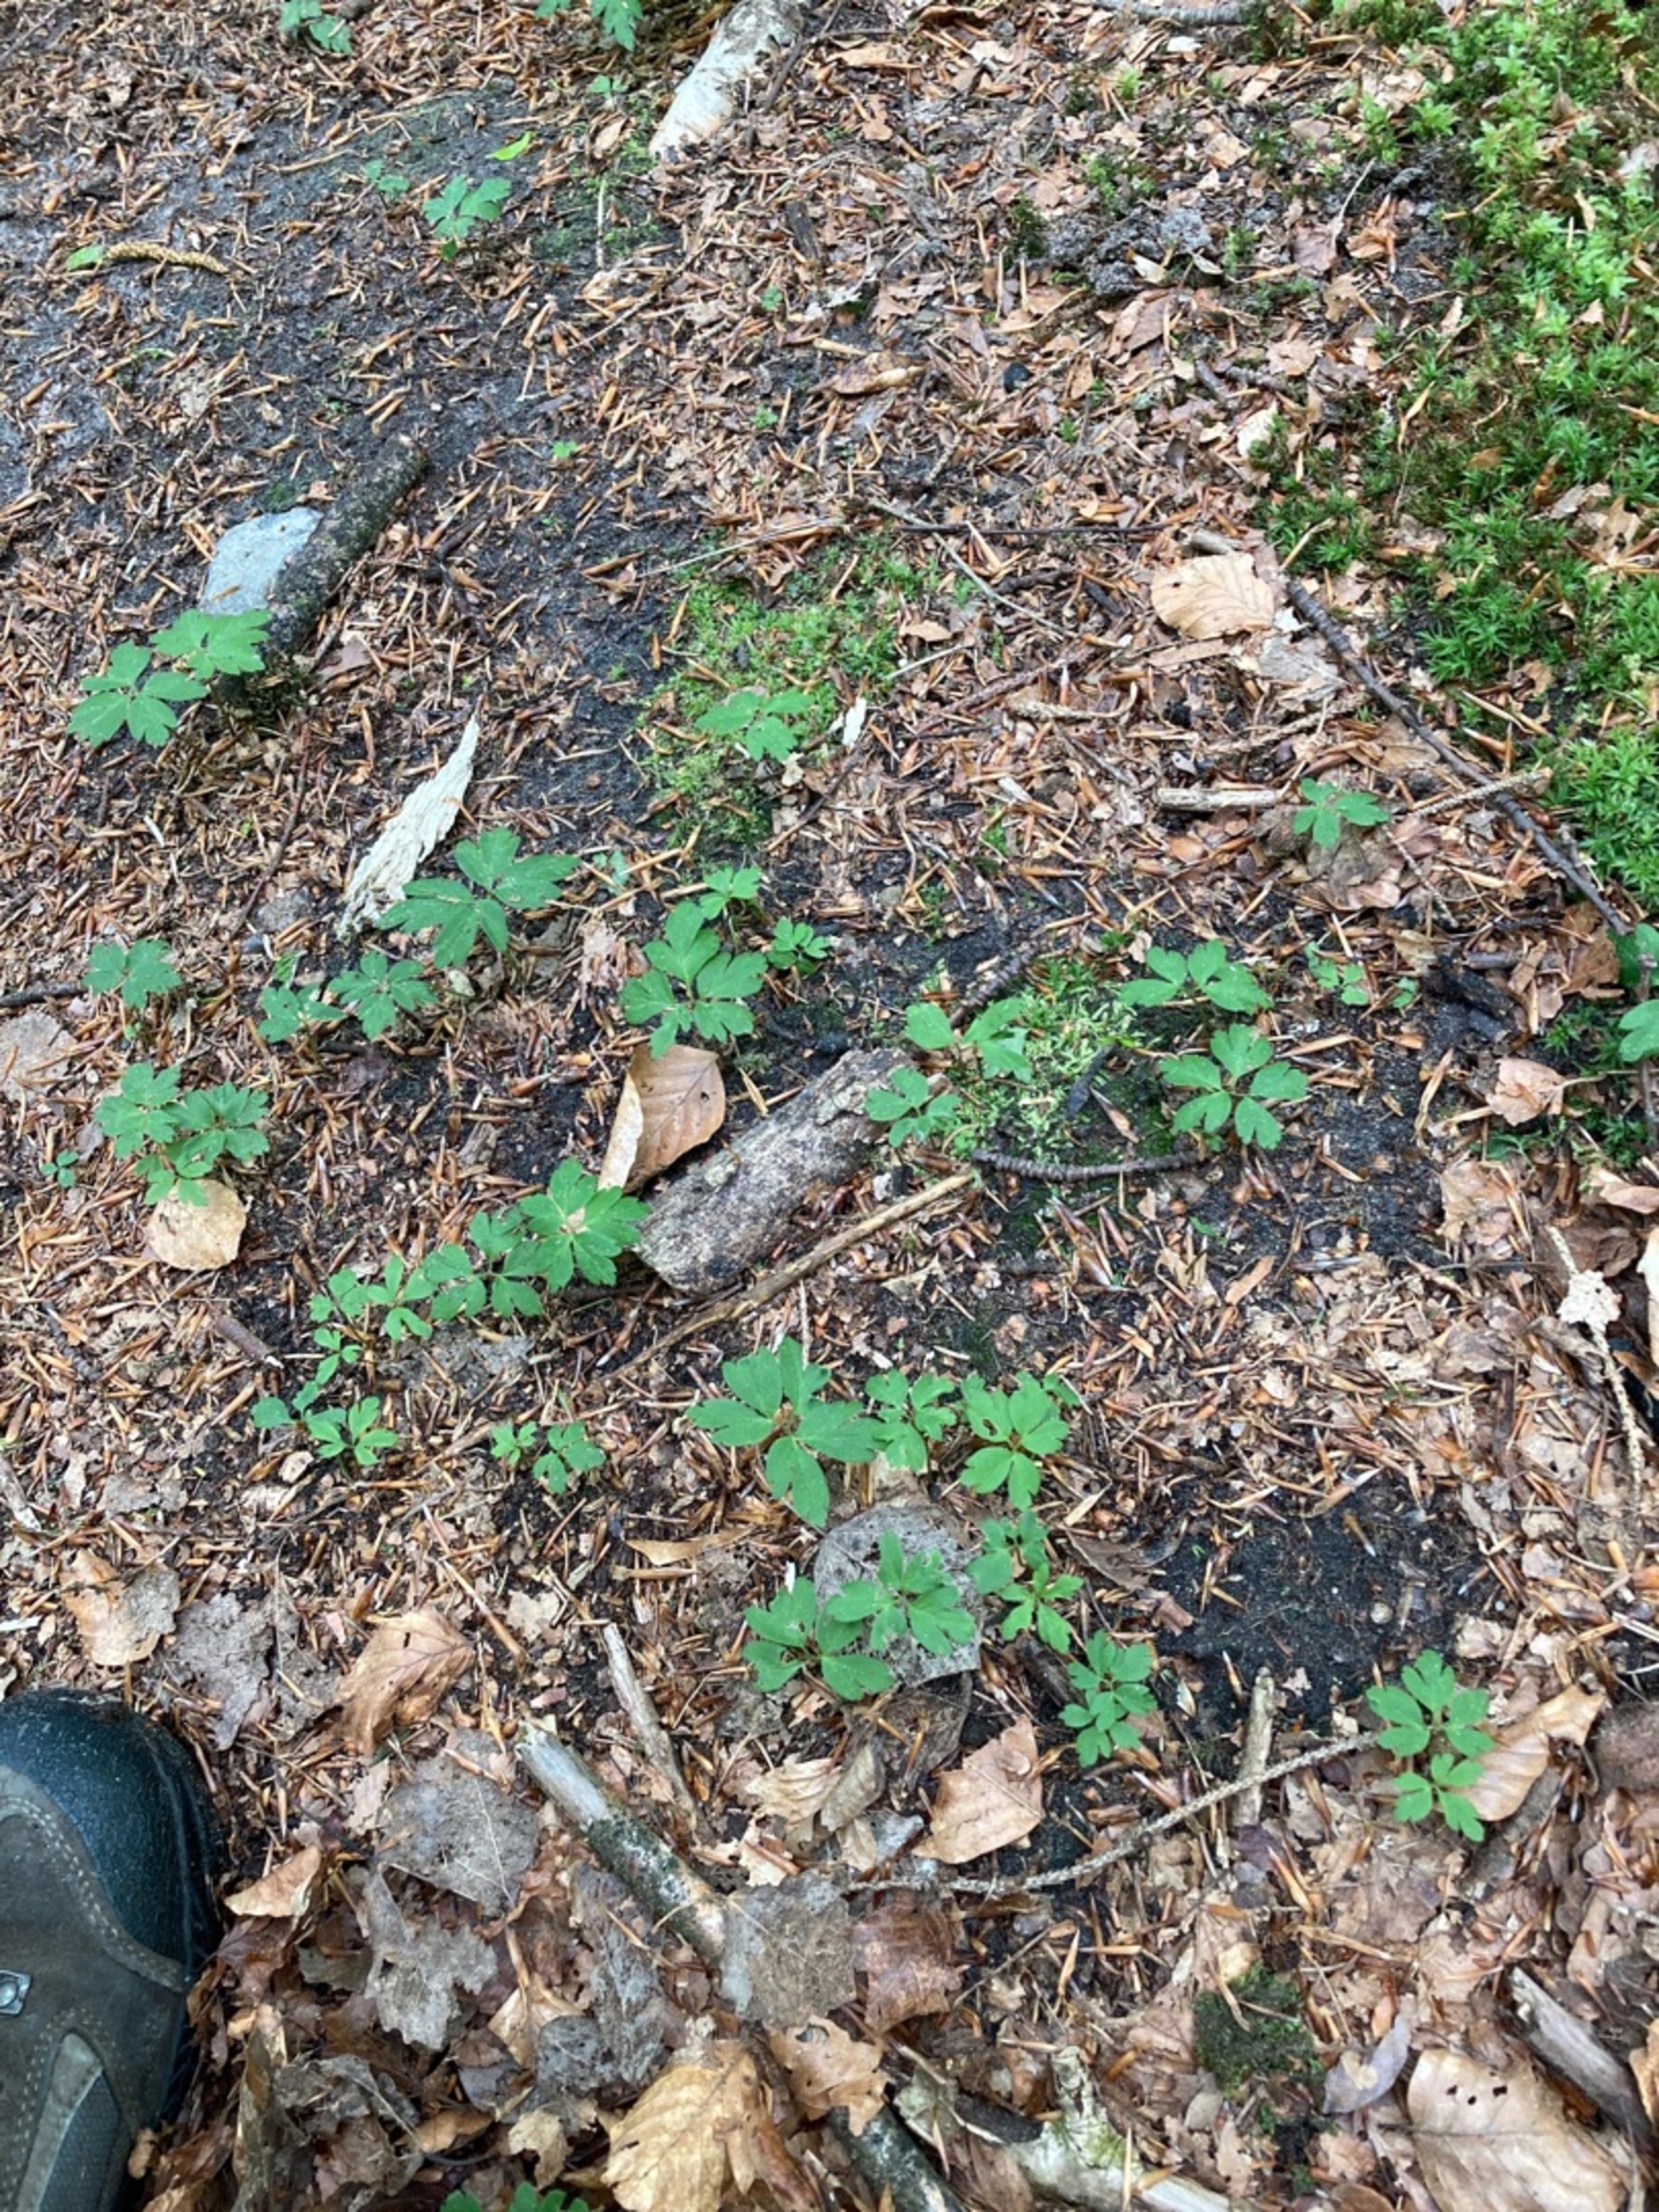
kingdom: Plantae
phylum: Tracheophyta
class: Magnoliopsida
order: Ranunculales
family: Ranunculaceae
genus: Anemone
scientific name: Anemone nemorosa
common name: Hvid anemone
